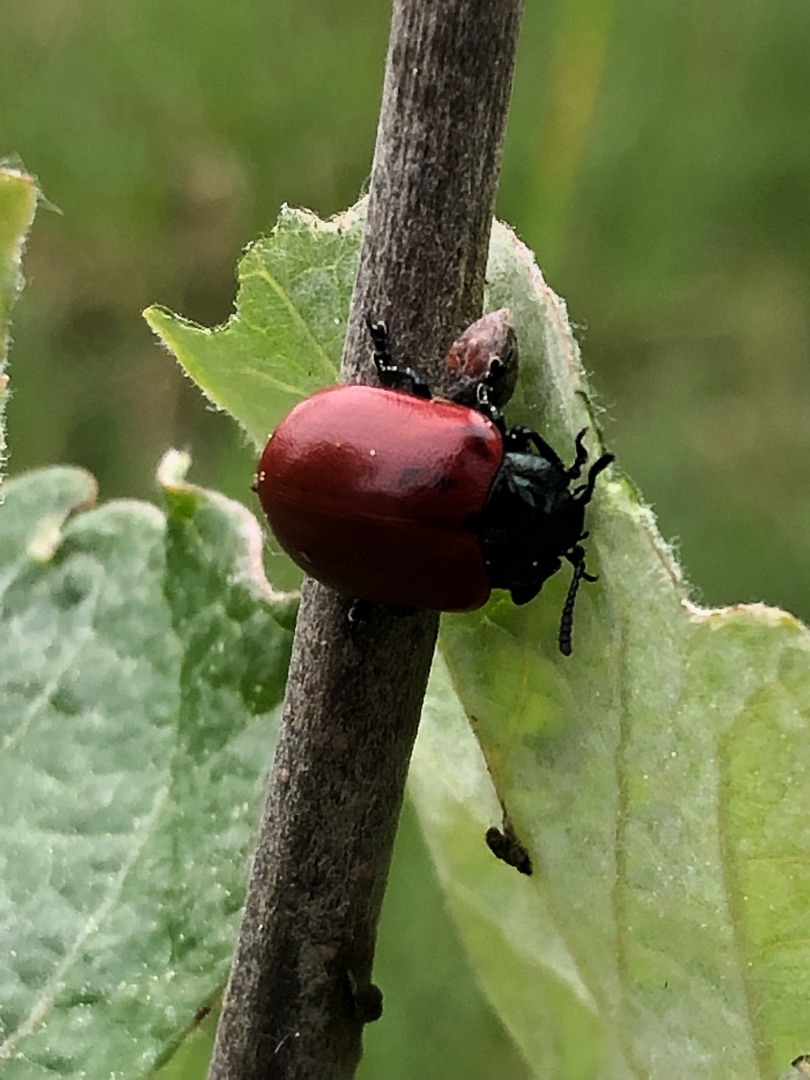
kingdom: Animalia
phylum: Arthropoda
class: Insecta
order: Coleoptera
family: Chrysomelidae
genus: Chrysomela
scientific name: Chrysomela populi
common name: Poppelbladbille
